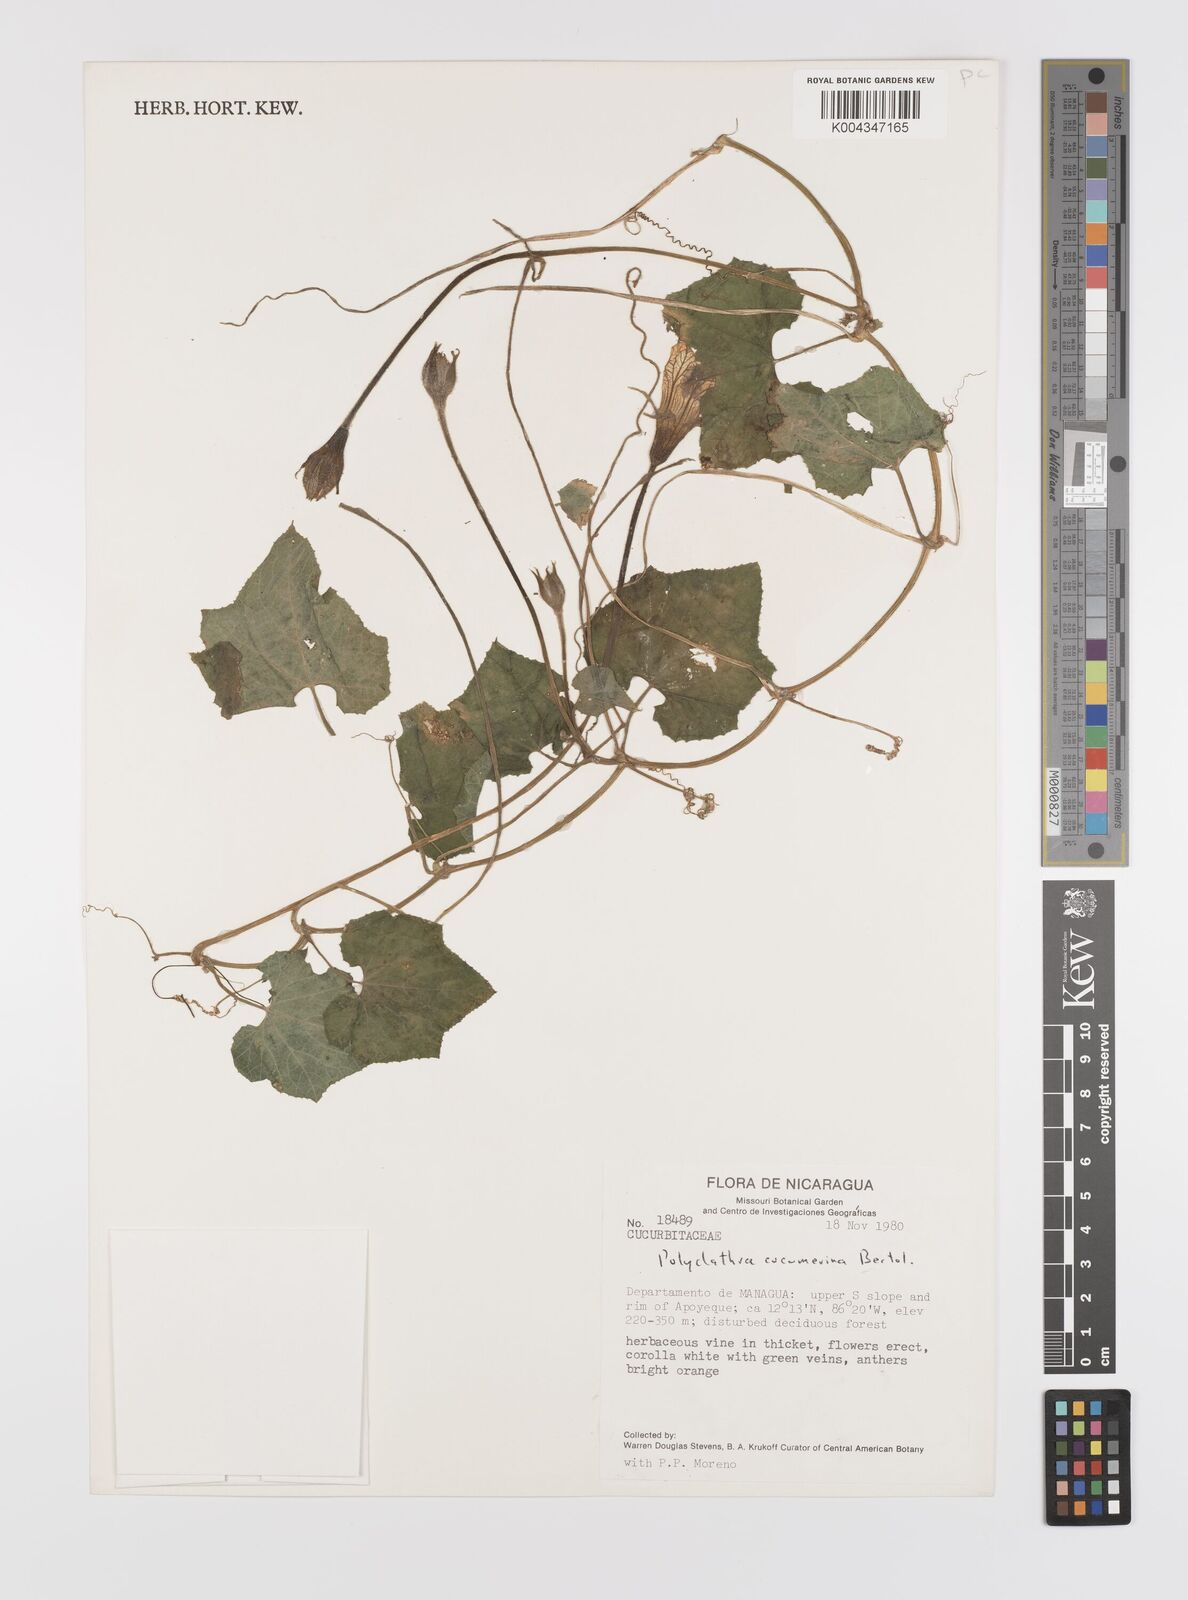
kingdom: Plantae
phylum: Tracheophyta
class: Magnoliopsida
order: Cucurbitales
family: Cucurbitaceae
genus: Polyclathra
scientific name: Polyclathra cucumerina
